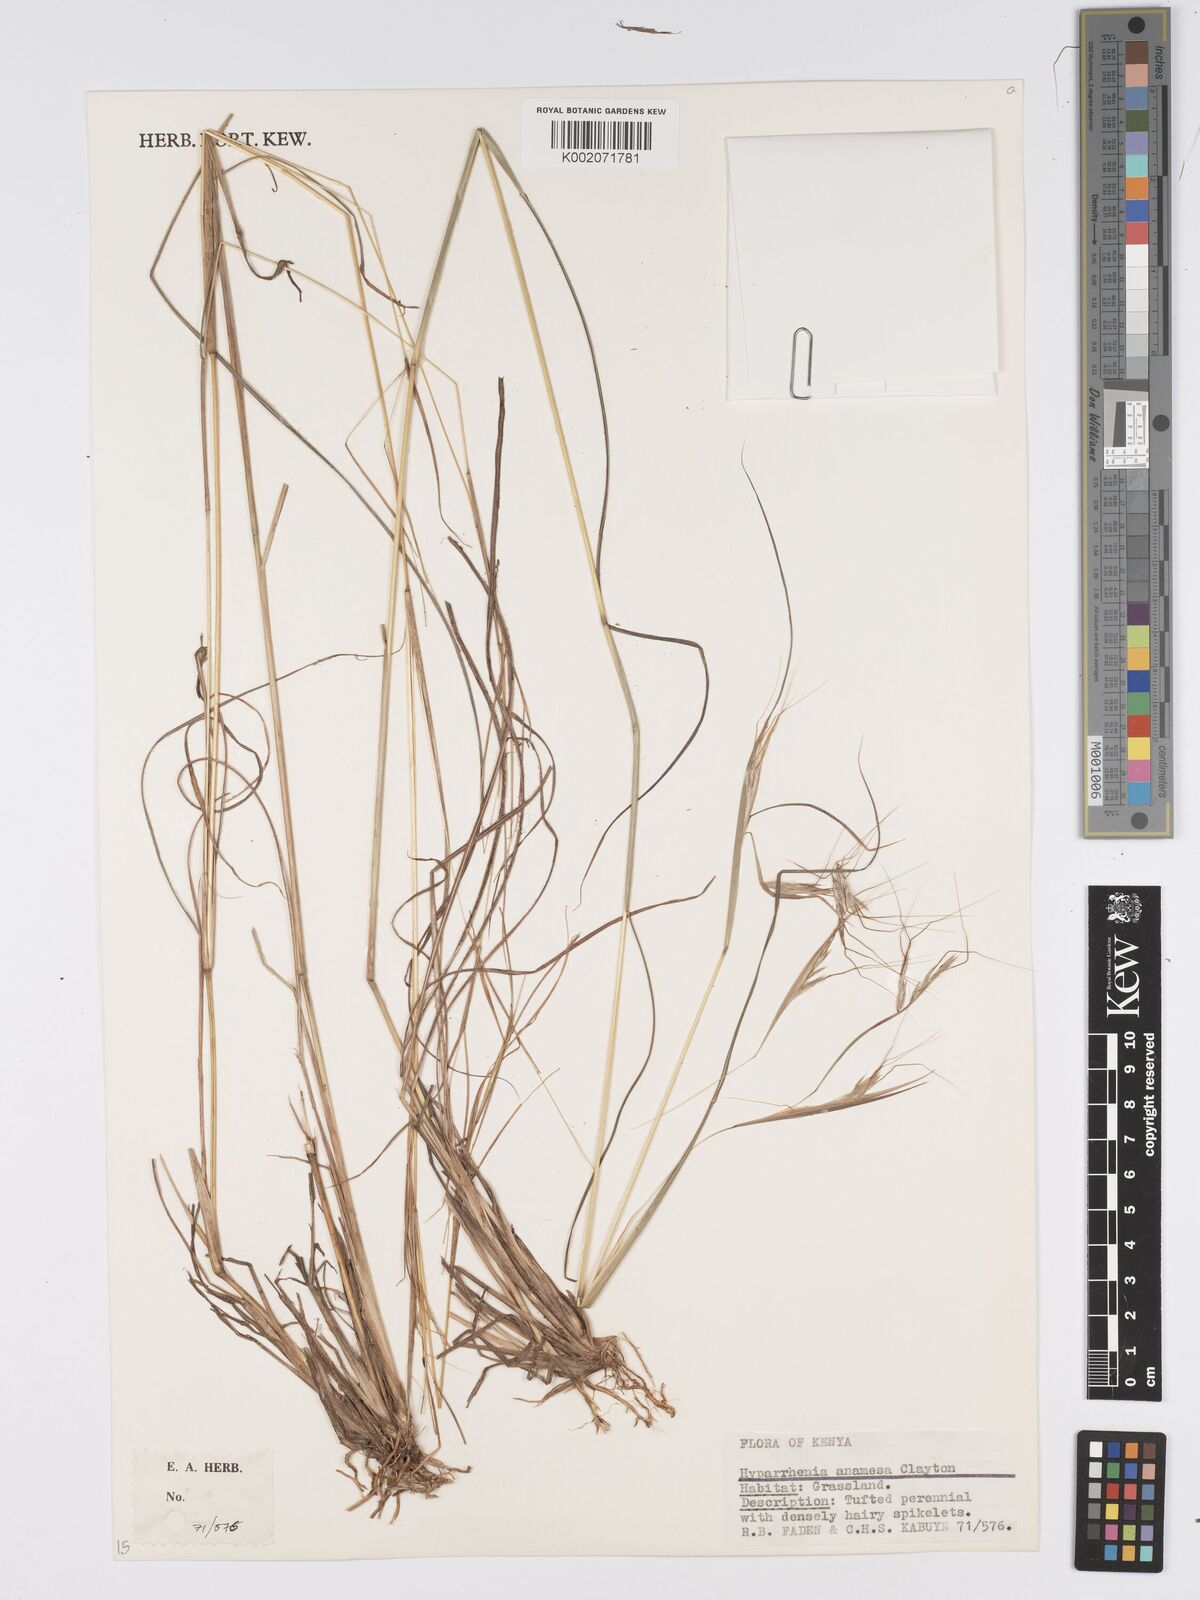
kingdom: Plantae
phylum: Tracheophyta
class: Liliopsida
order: Poales
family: Poaceae
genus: Hyparrhenia
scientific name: Hyparrhenia anamesa
